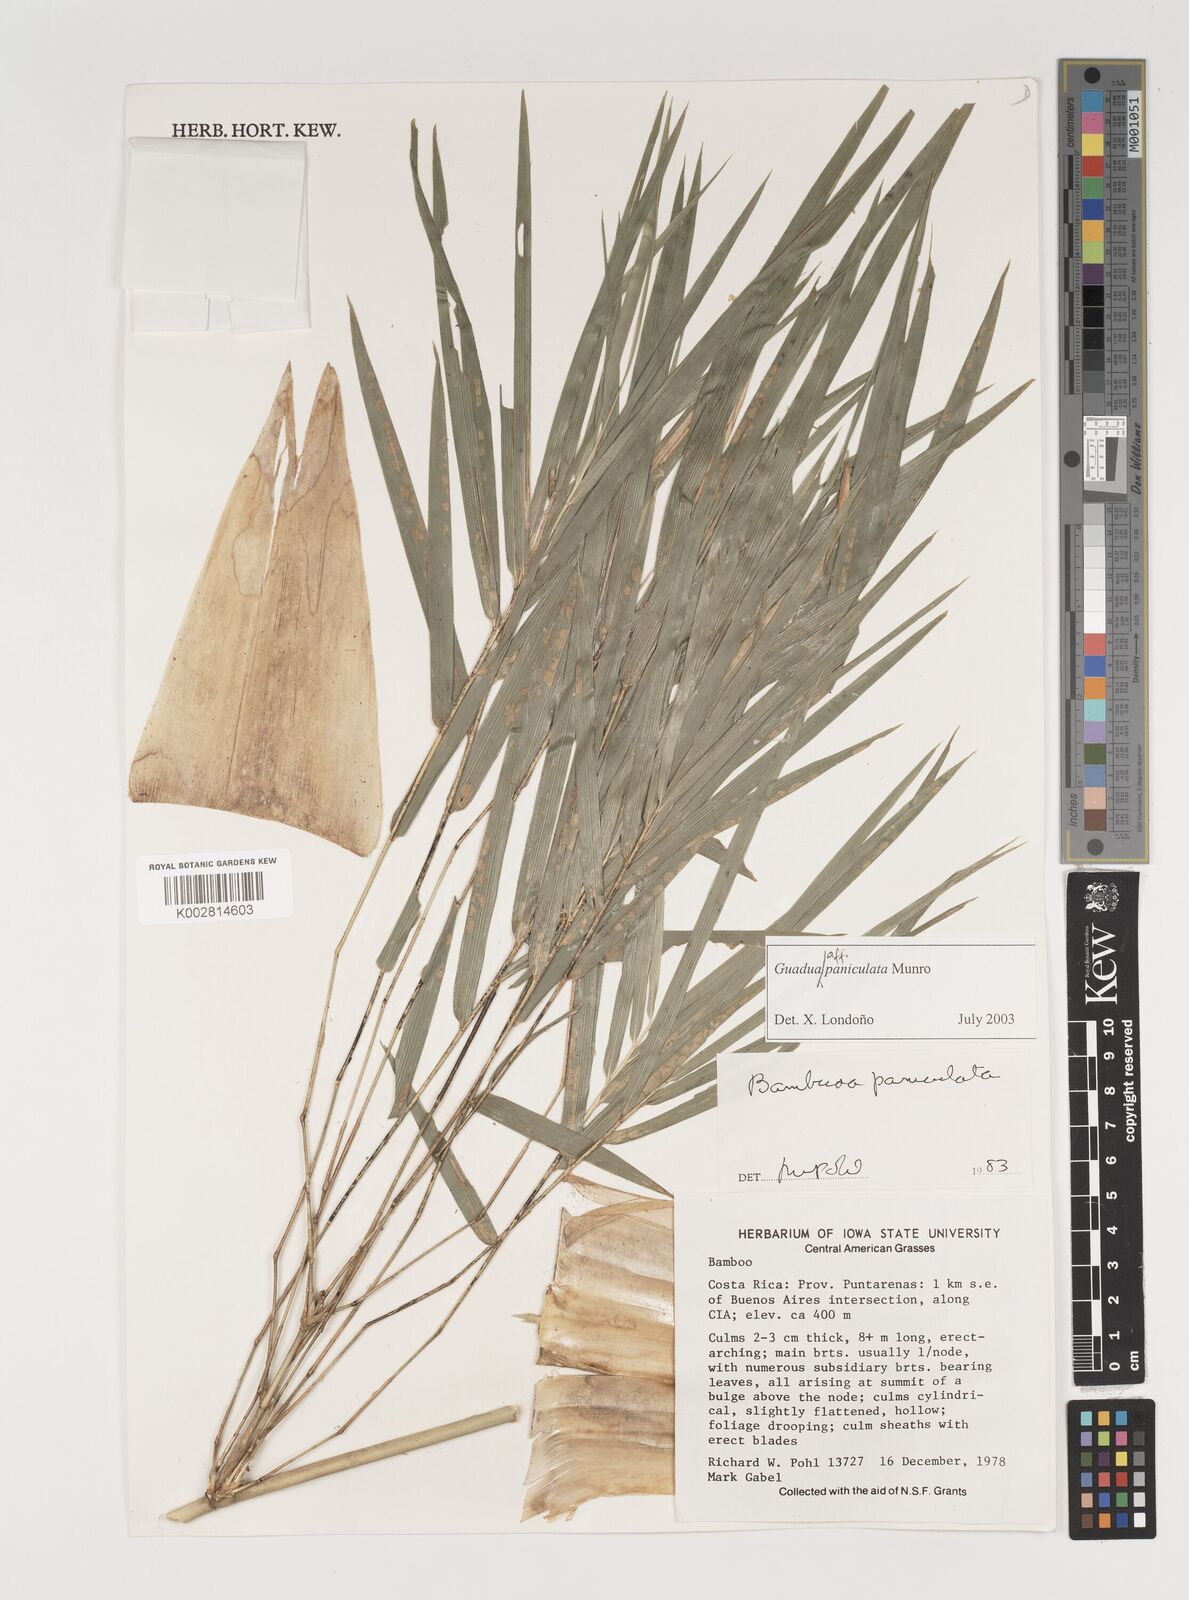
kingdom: Plantae
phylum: Tracheophyta
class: Liliopsida
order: Poales
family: Poaceae
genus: Guadua
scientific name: Guadua
